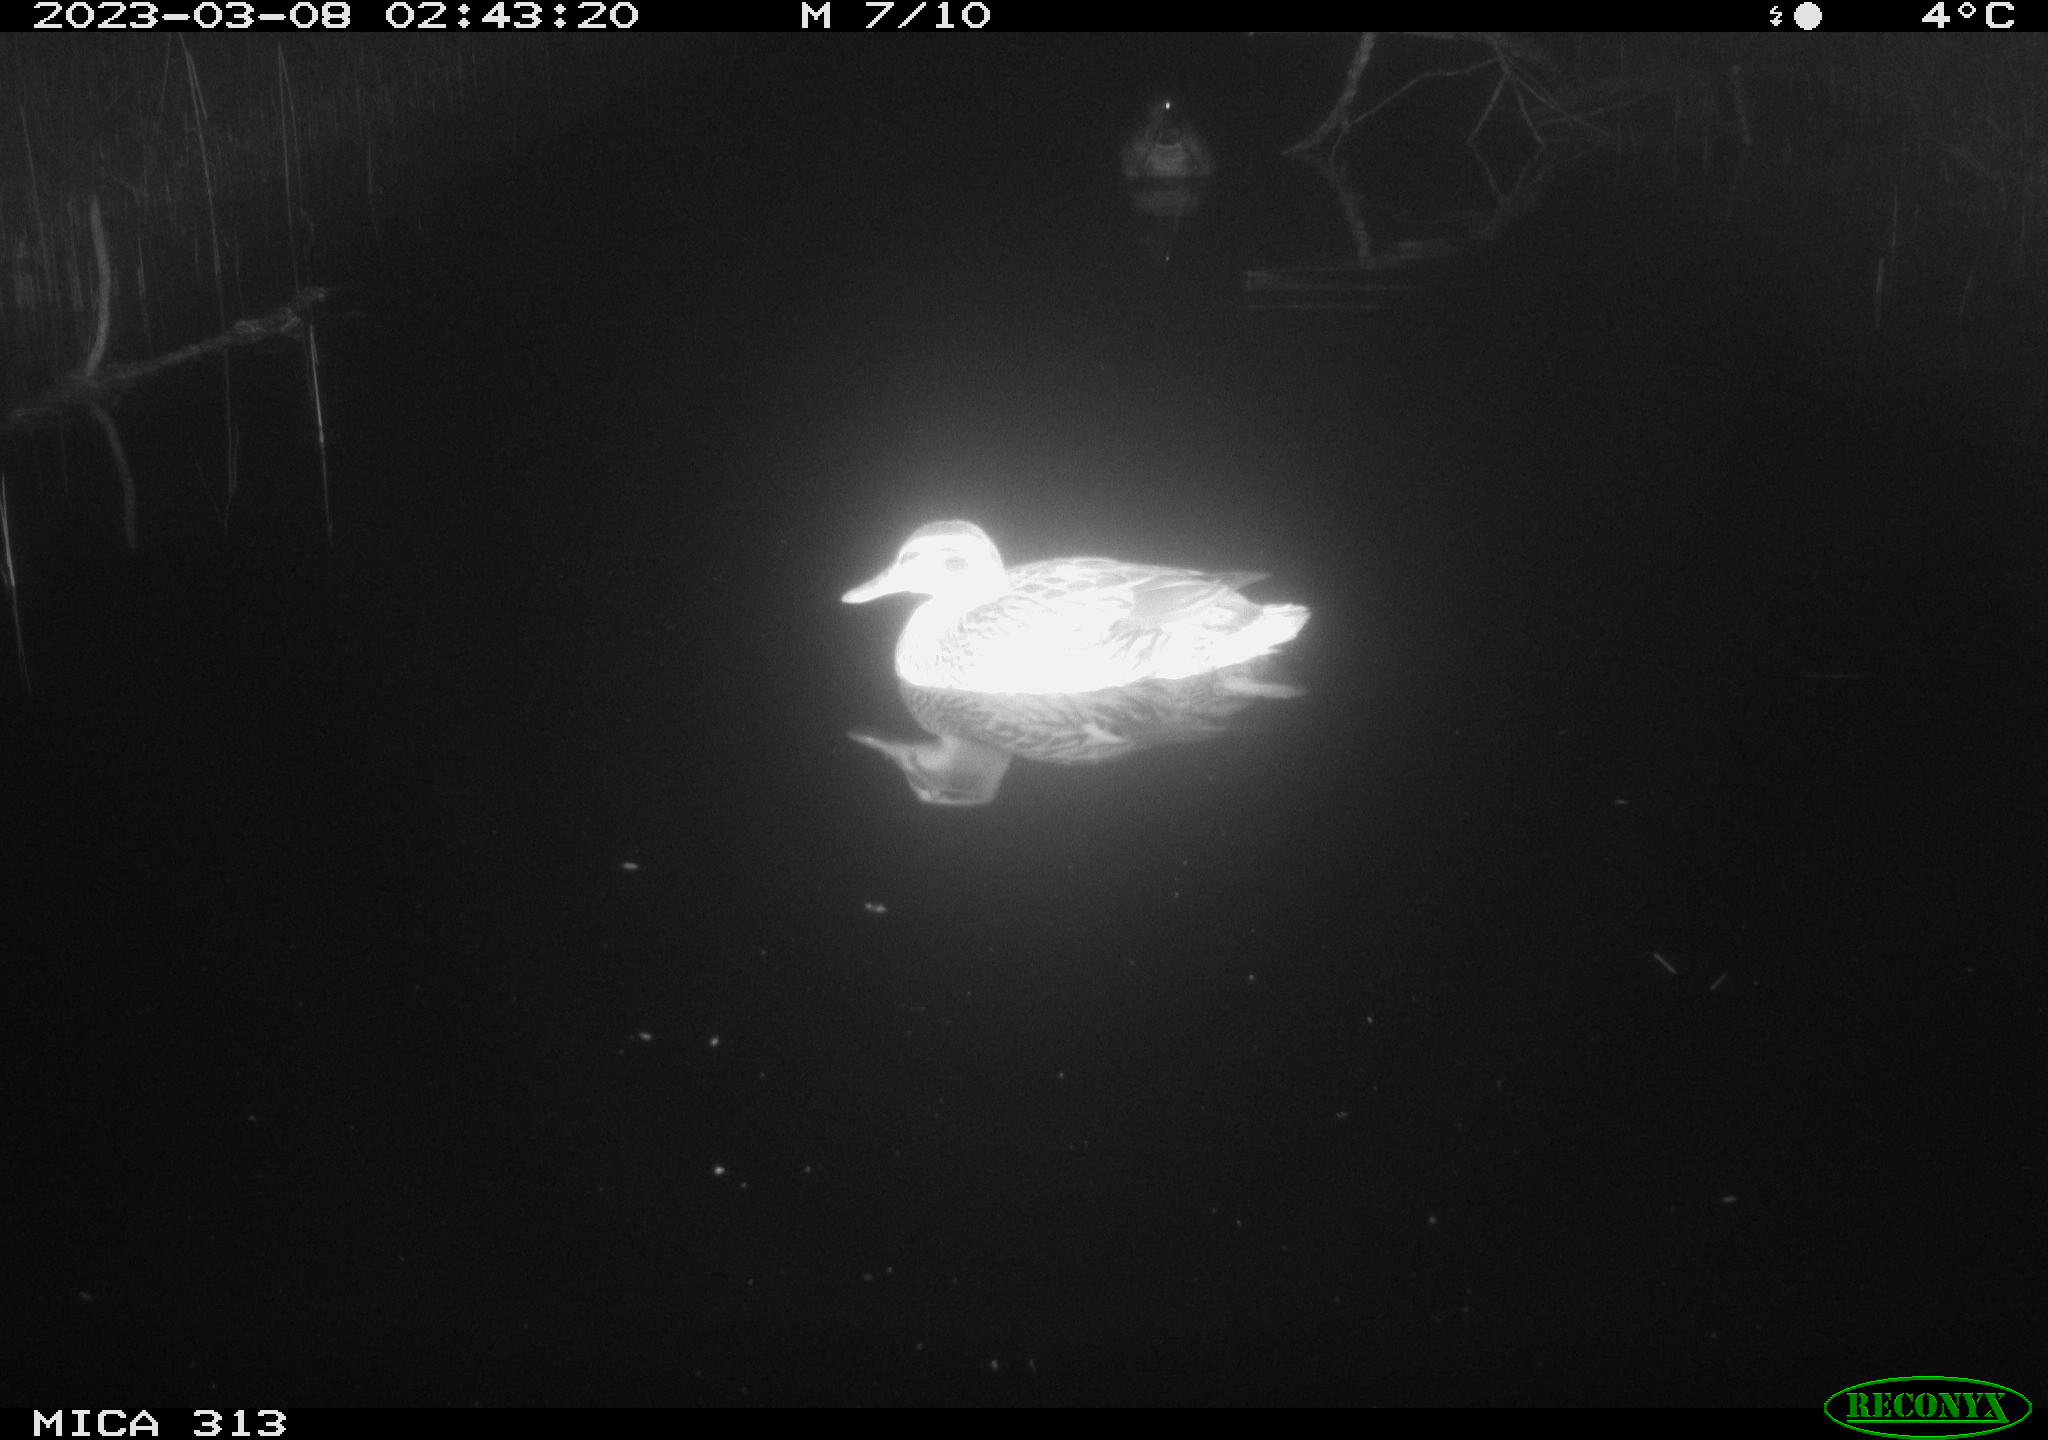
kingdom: Animalia
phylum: Chordata
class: Aves
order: Anseriformes
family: Anatidae
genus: Anas
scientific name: Anas
